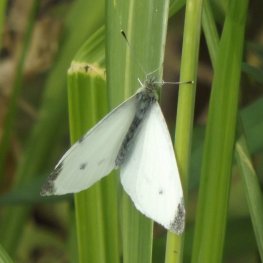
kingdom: Animalia
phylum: Arthropoda
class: Insecta
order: Lepidoptera
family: Pieridae
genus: Pieris
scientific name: Pieris rapae
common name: Cabbage White
